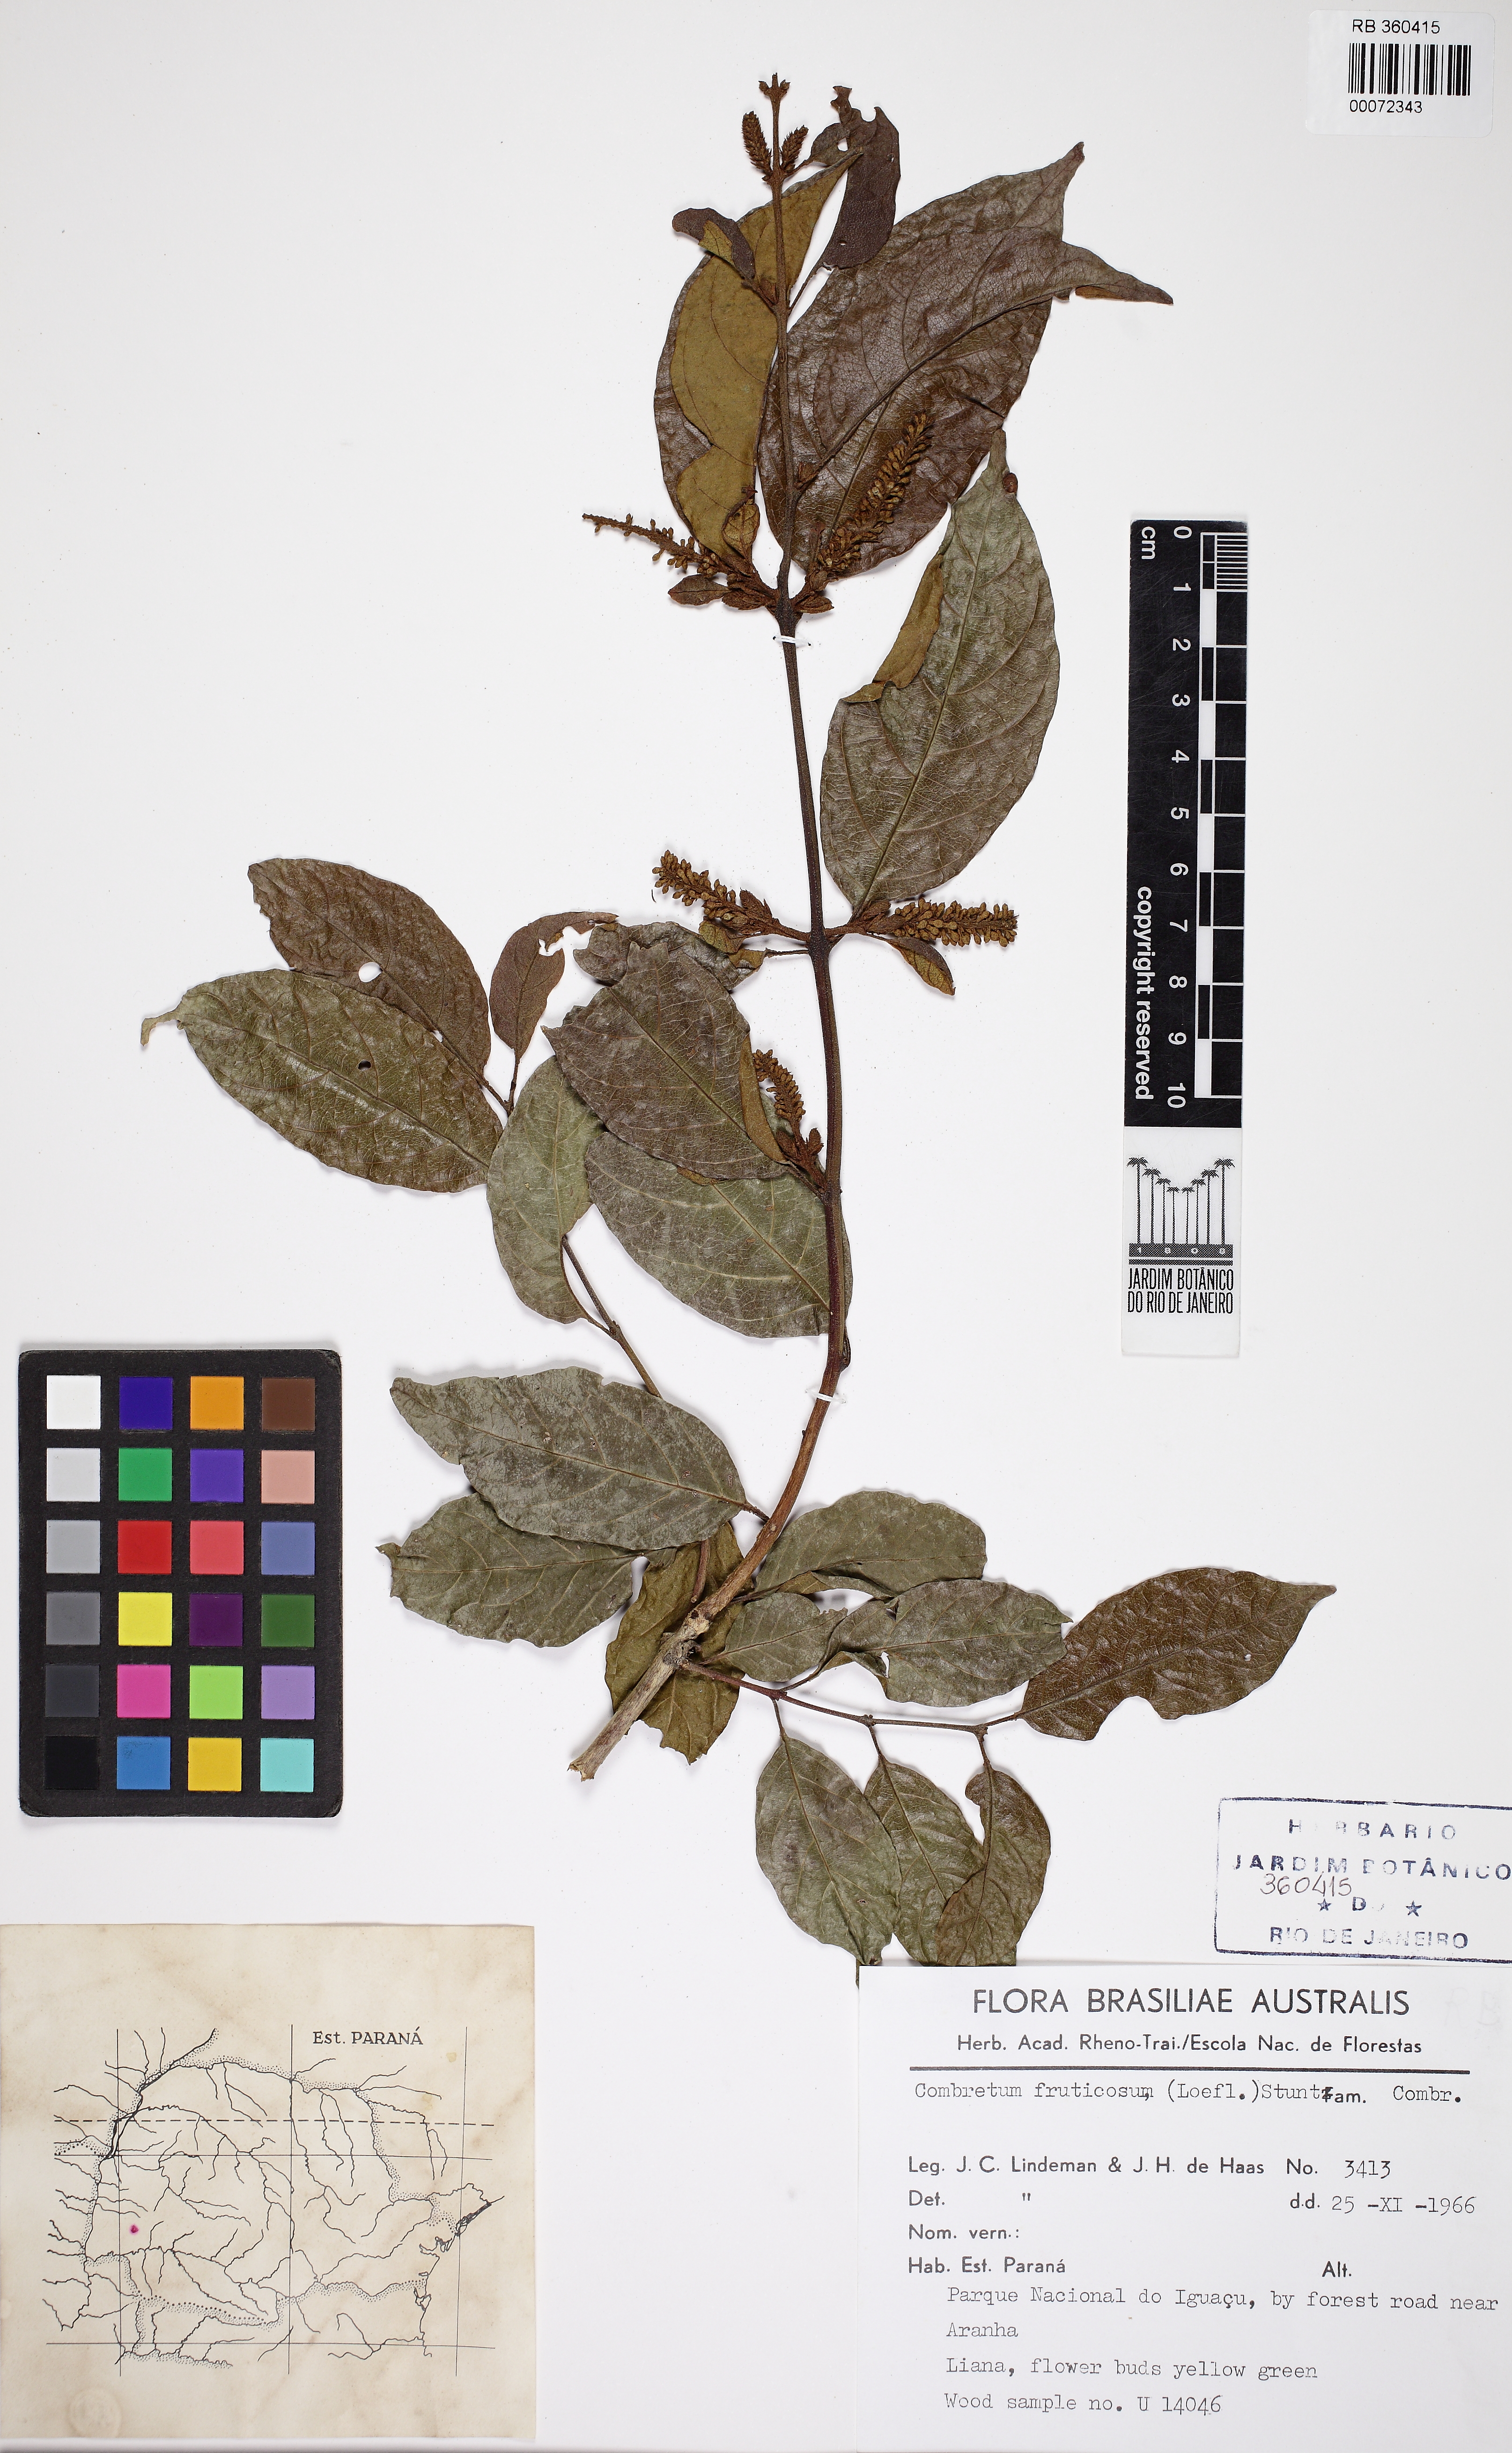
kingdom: Plantae
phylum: Tracheophyta
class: Magnoliopsida
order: Myrtales
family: Combretaceae
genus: Combretum
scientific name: Combretum fruticosum
